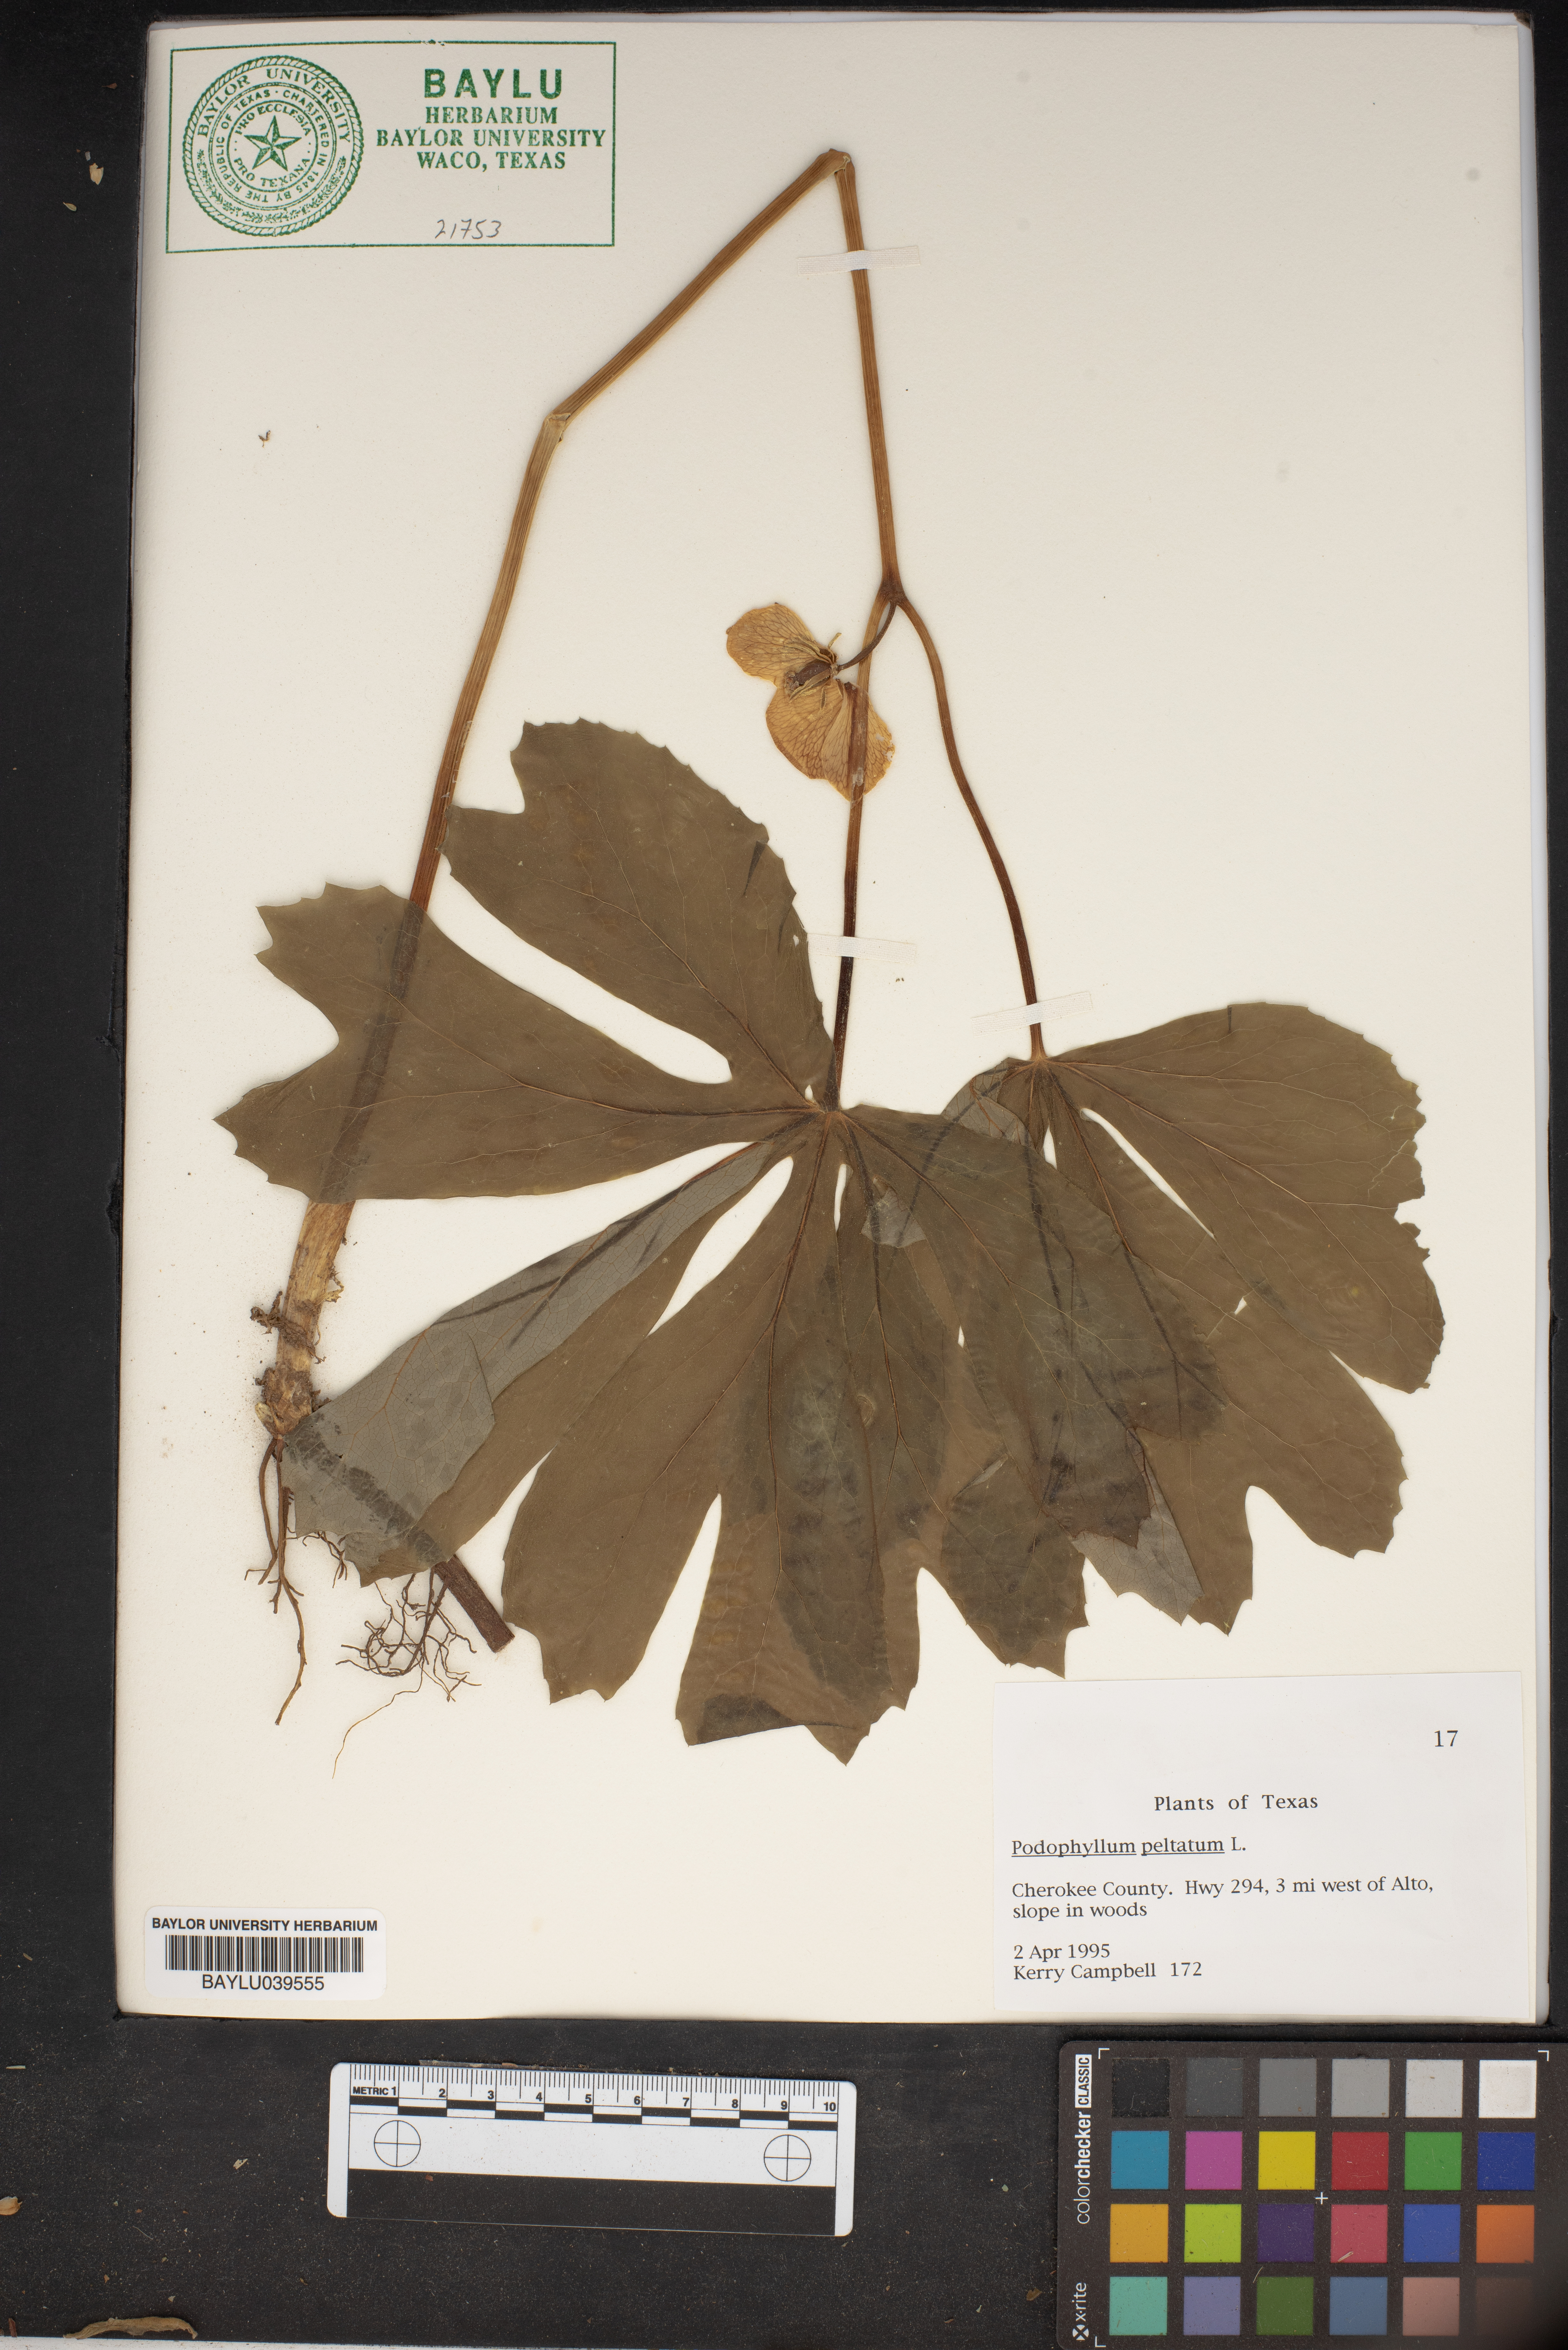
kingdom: Plantae
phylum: Tracheophyta
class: Magnoliopsida
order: Ranunculales
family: Berberidaceae
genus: Podophyllum
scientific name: Podophyllum peltatum
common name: Wild mandrake
